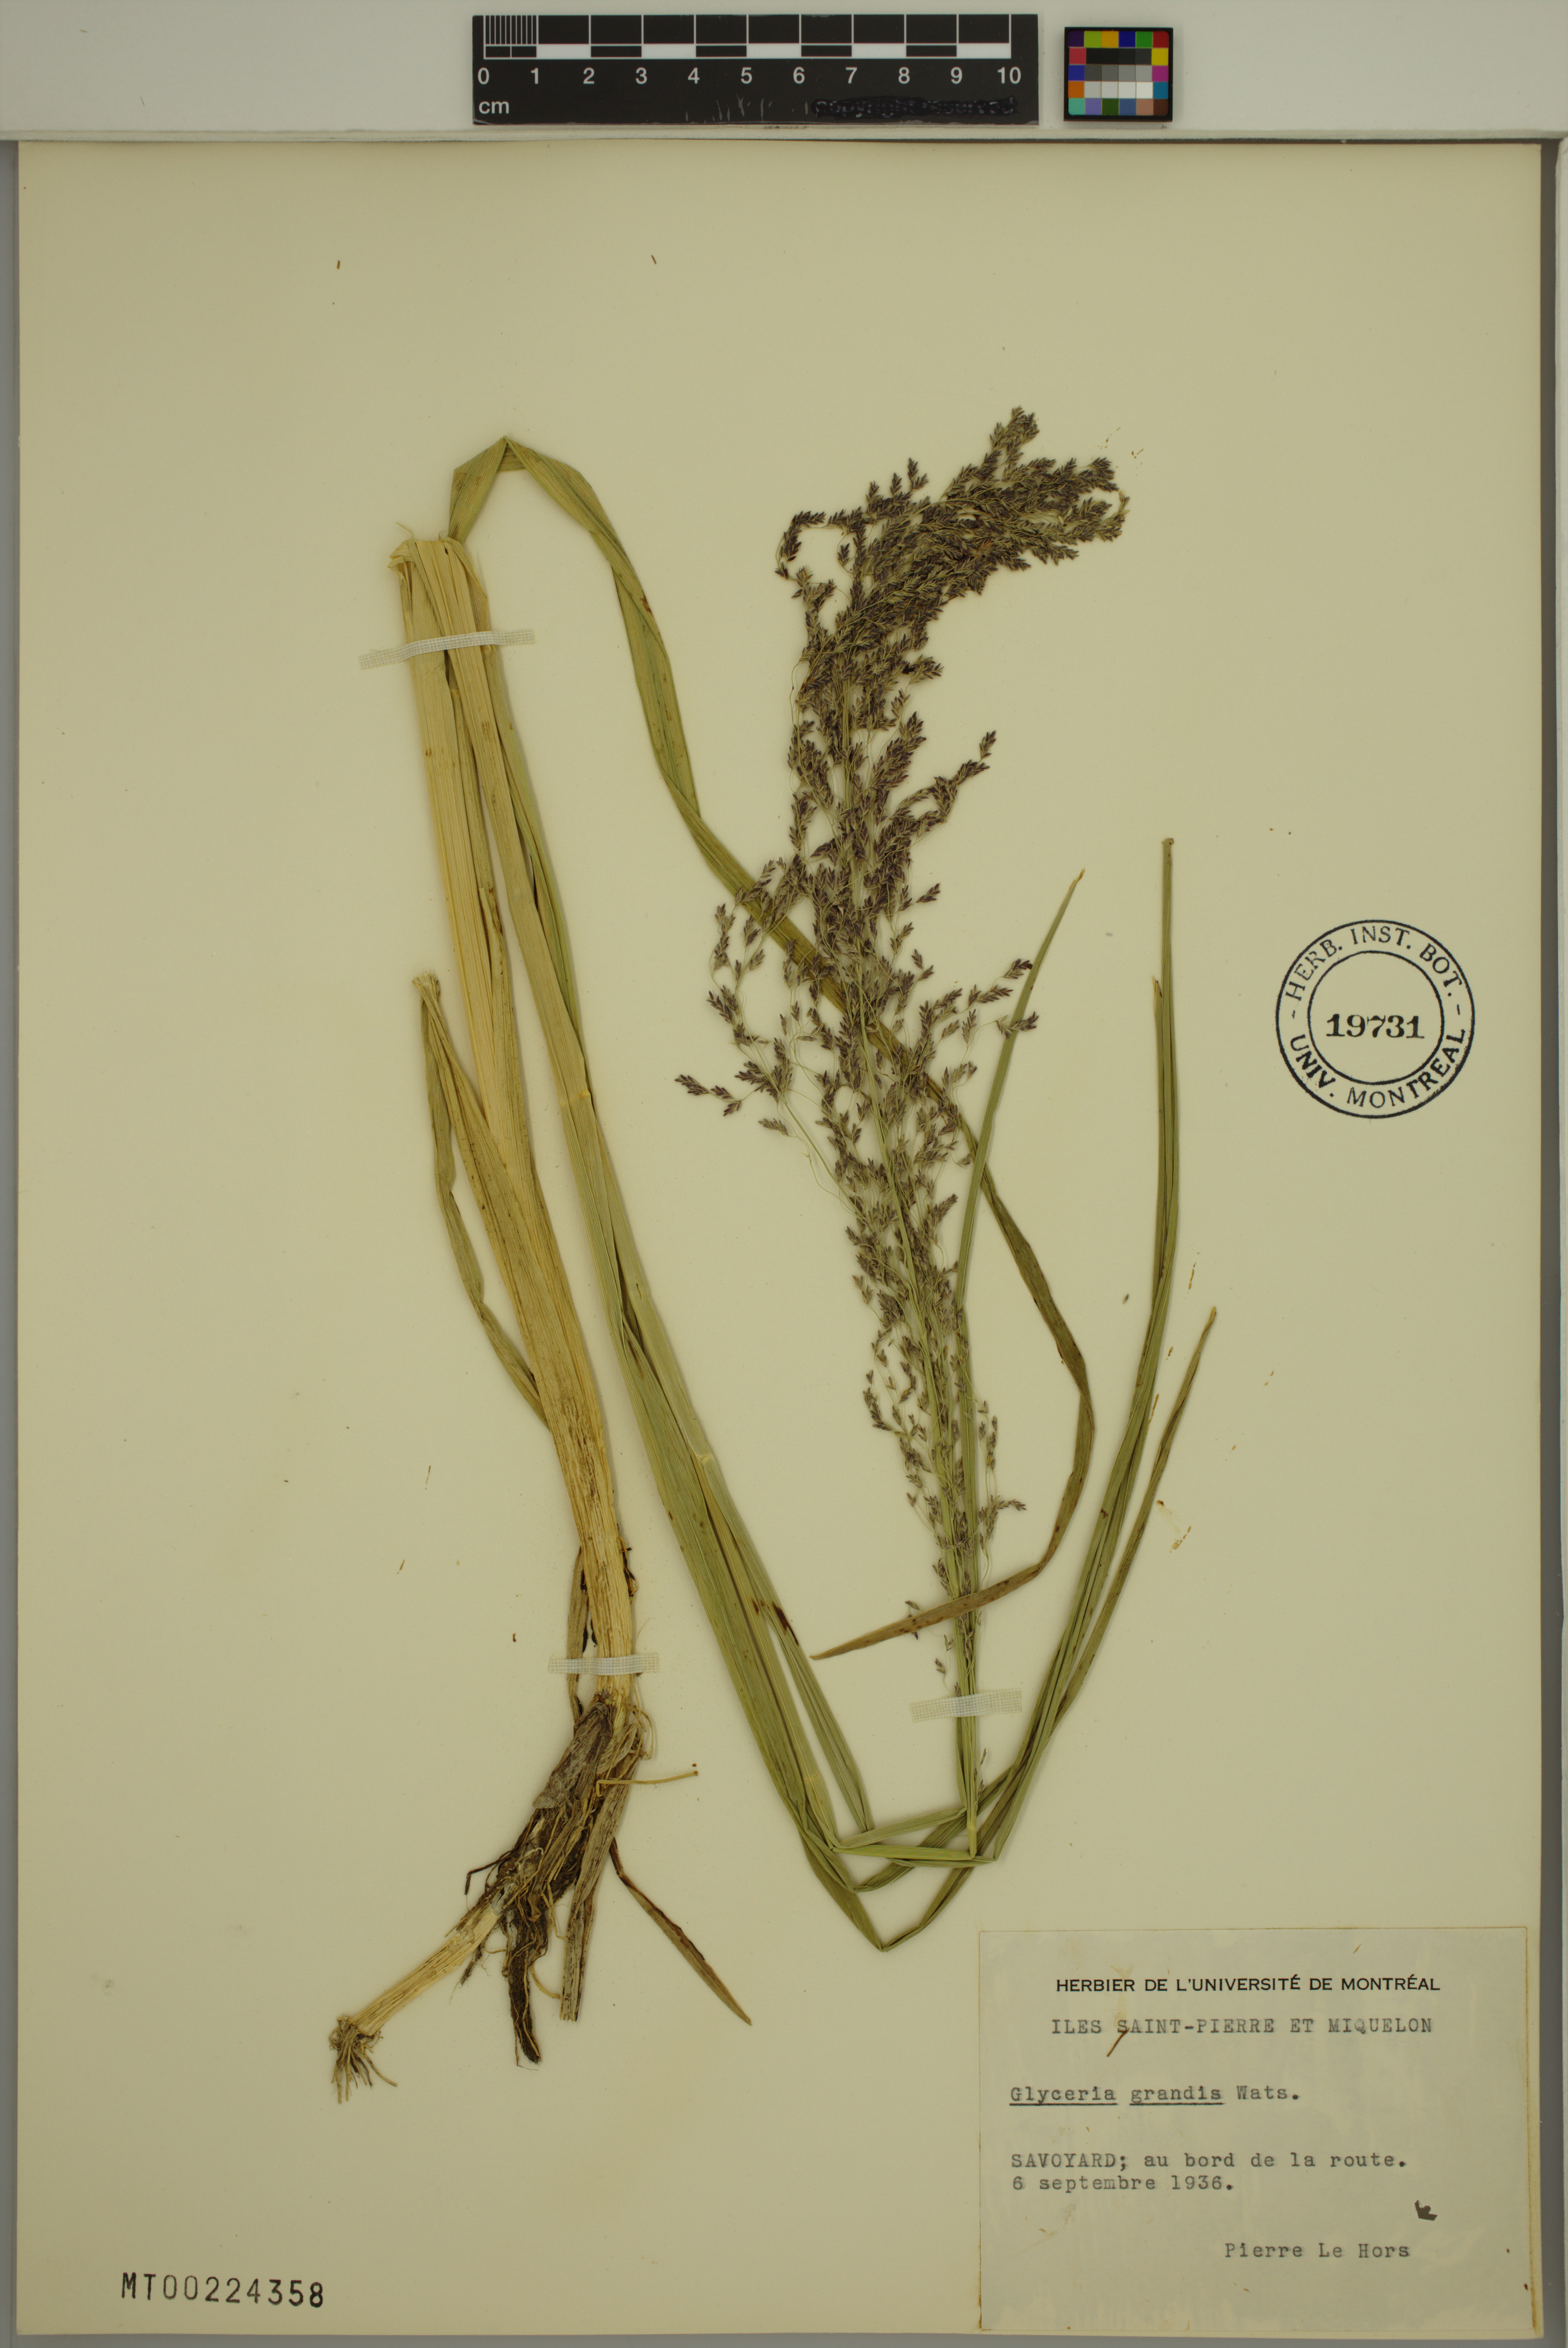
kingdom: Plantae
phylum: Tracheophyta
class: Liliopsida
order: Poales
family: Poaceae
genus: Glyceria
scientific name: Glyceria grandis
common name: American glyceria
